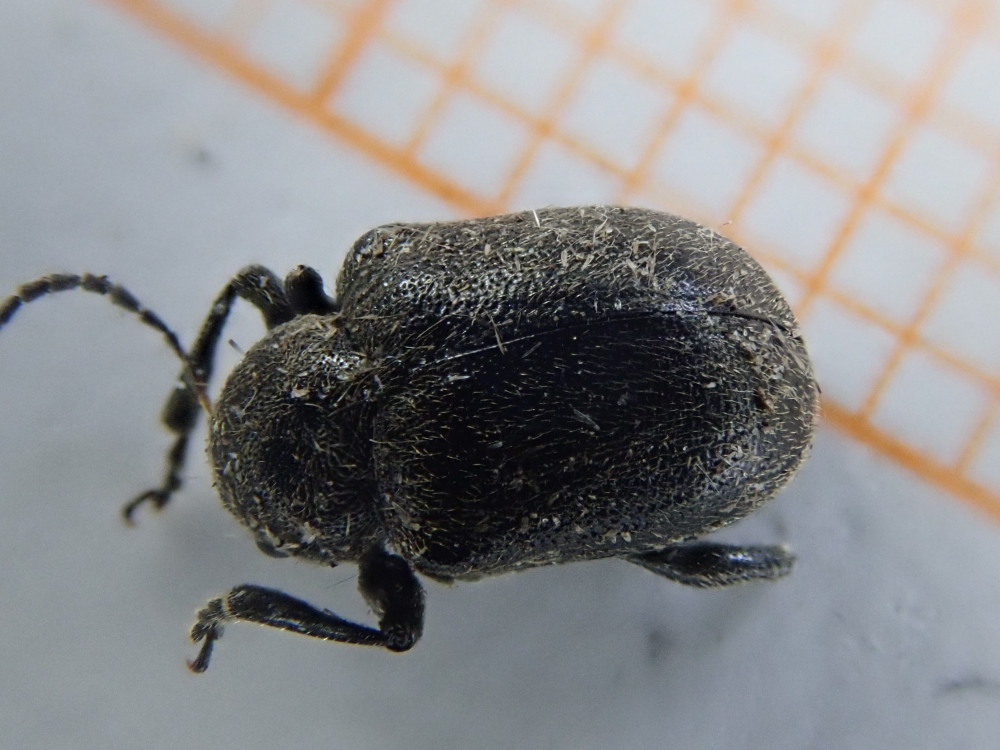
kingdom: Animalia
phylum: Arthropoda
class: Insecta
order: Coleoptera
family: Chrysomelidae
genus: Bromius
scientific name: Bromius obscurus
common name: Western grape rootworm
